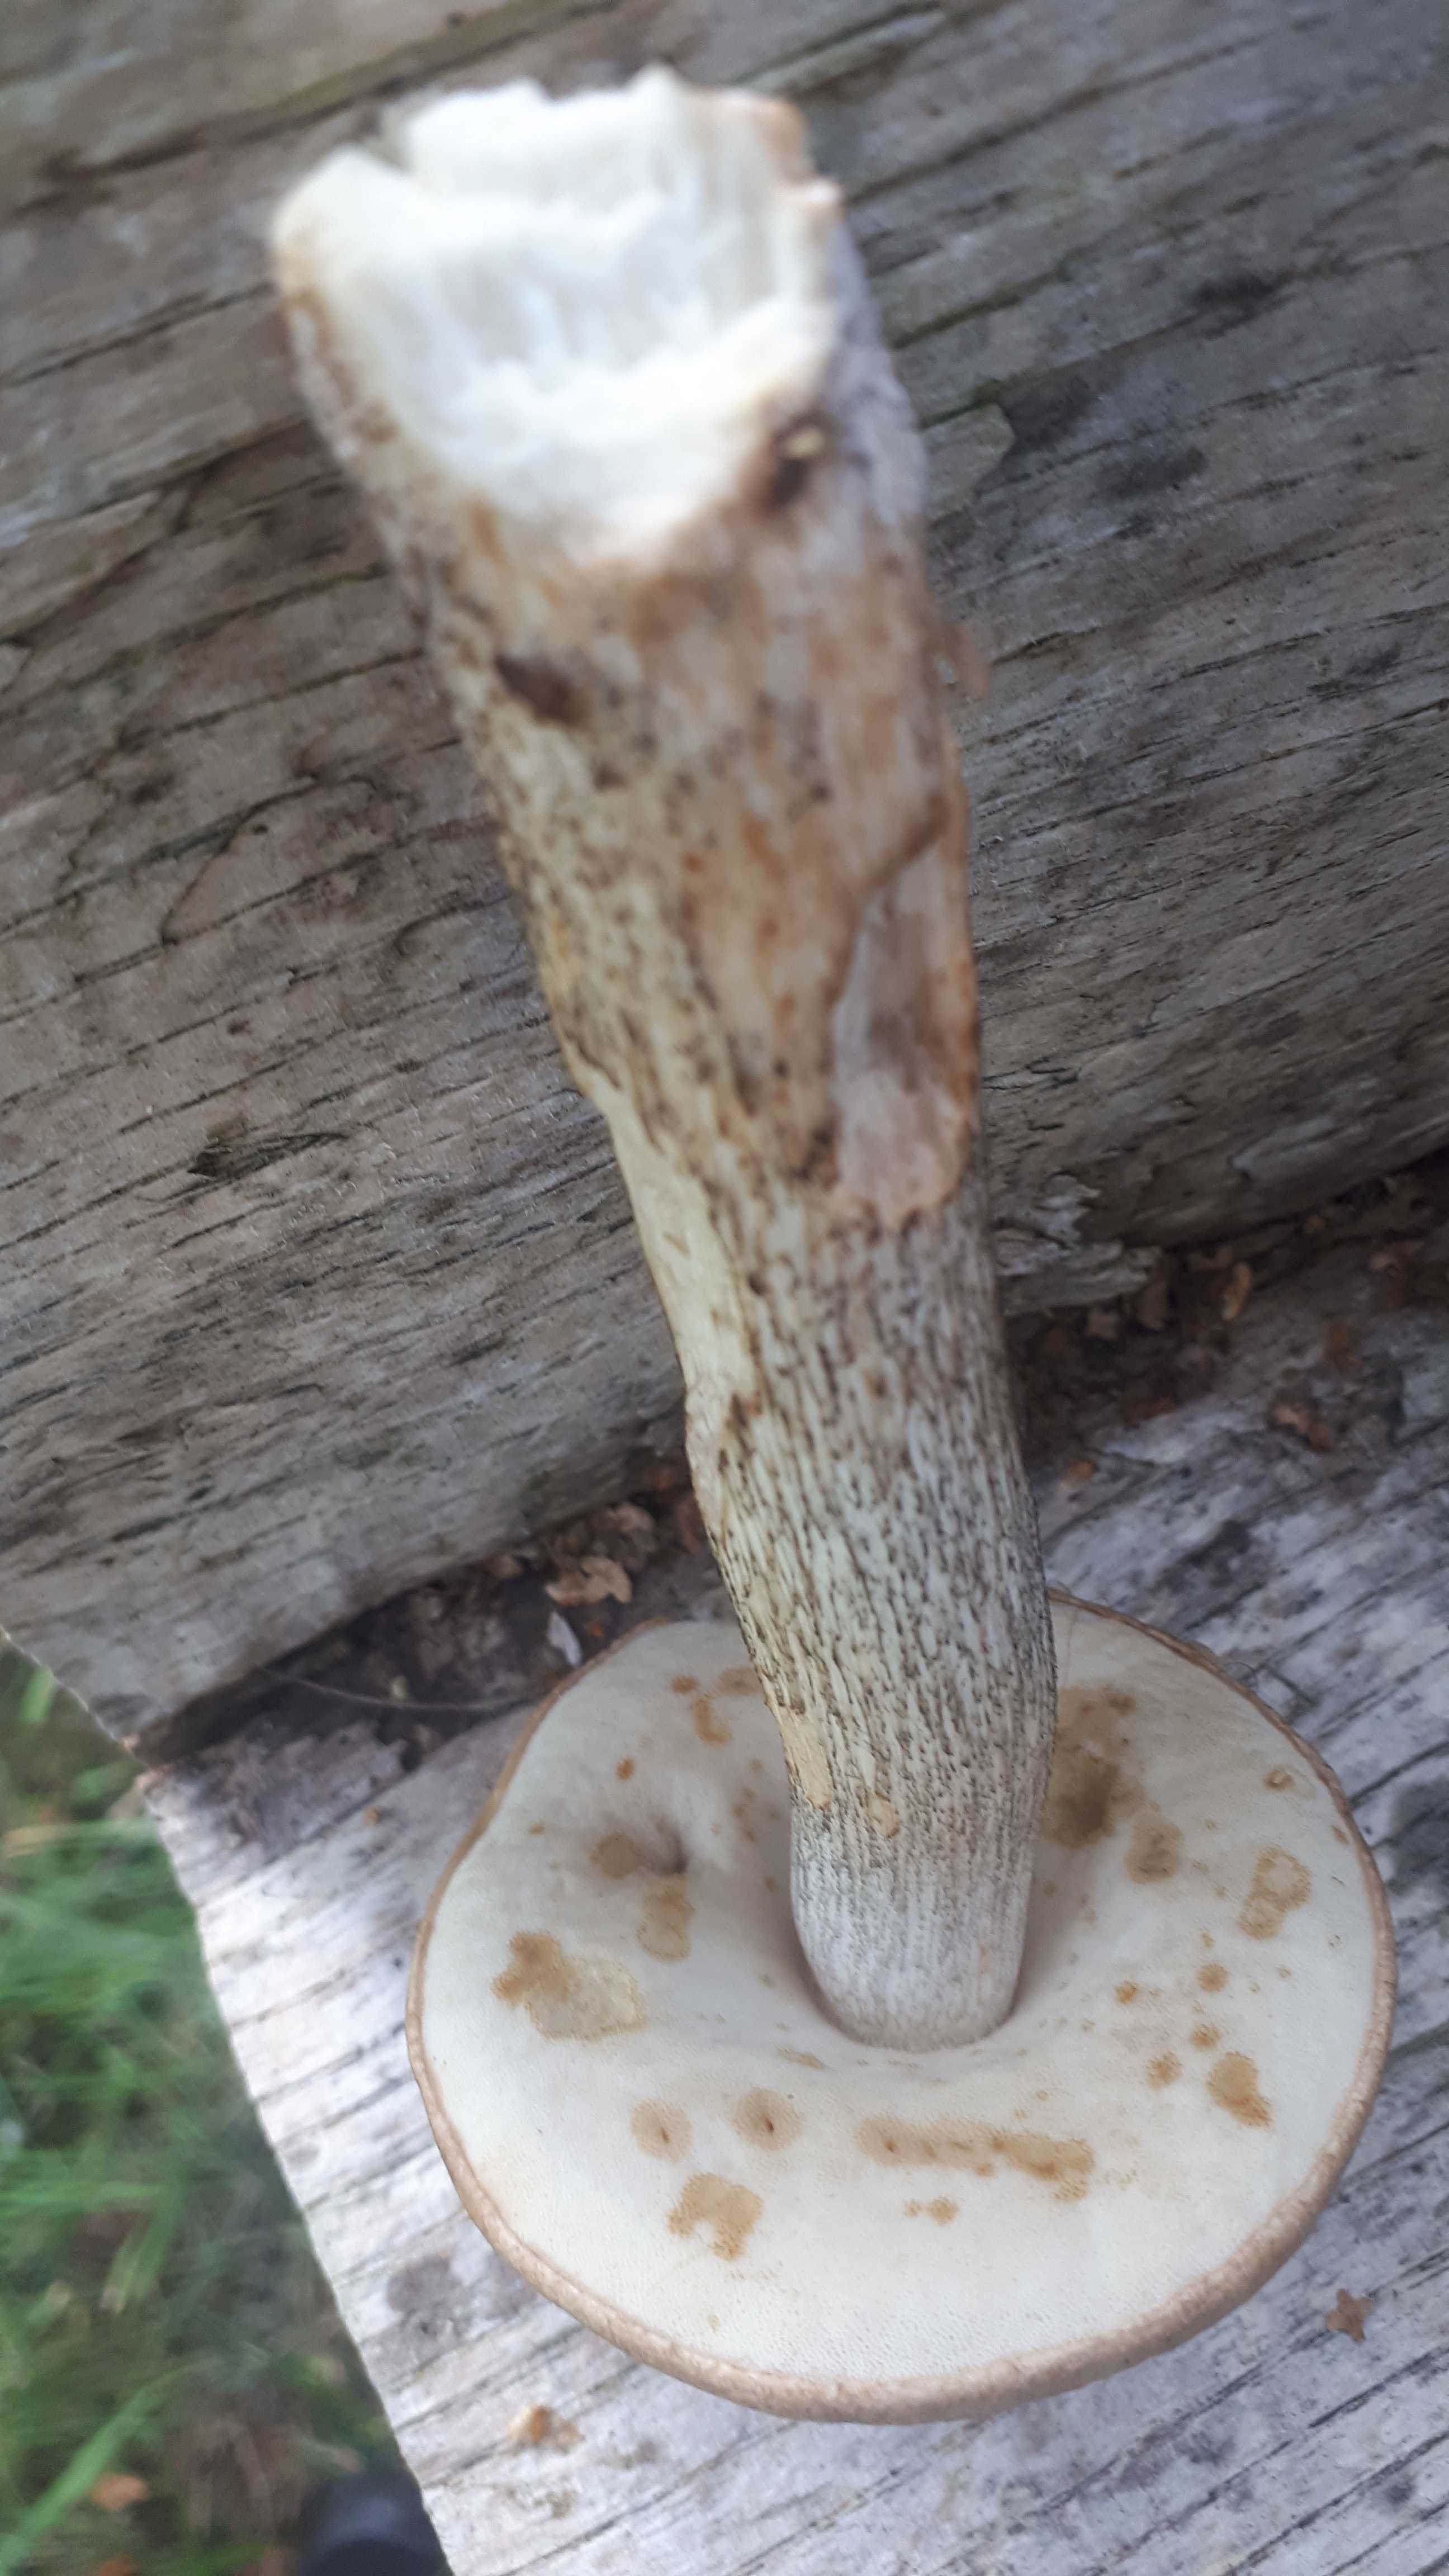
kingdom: Fungi
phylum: Basidiomycota
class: Agaricomycetes
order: Boletales
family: Boletaceae
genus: Leccinellum
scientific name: Leccinellum
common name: skælrørhat
